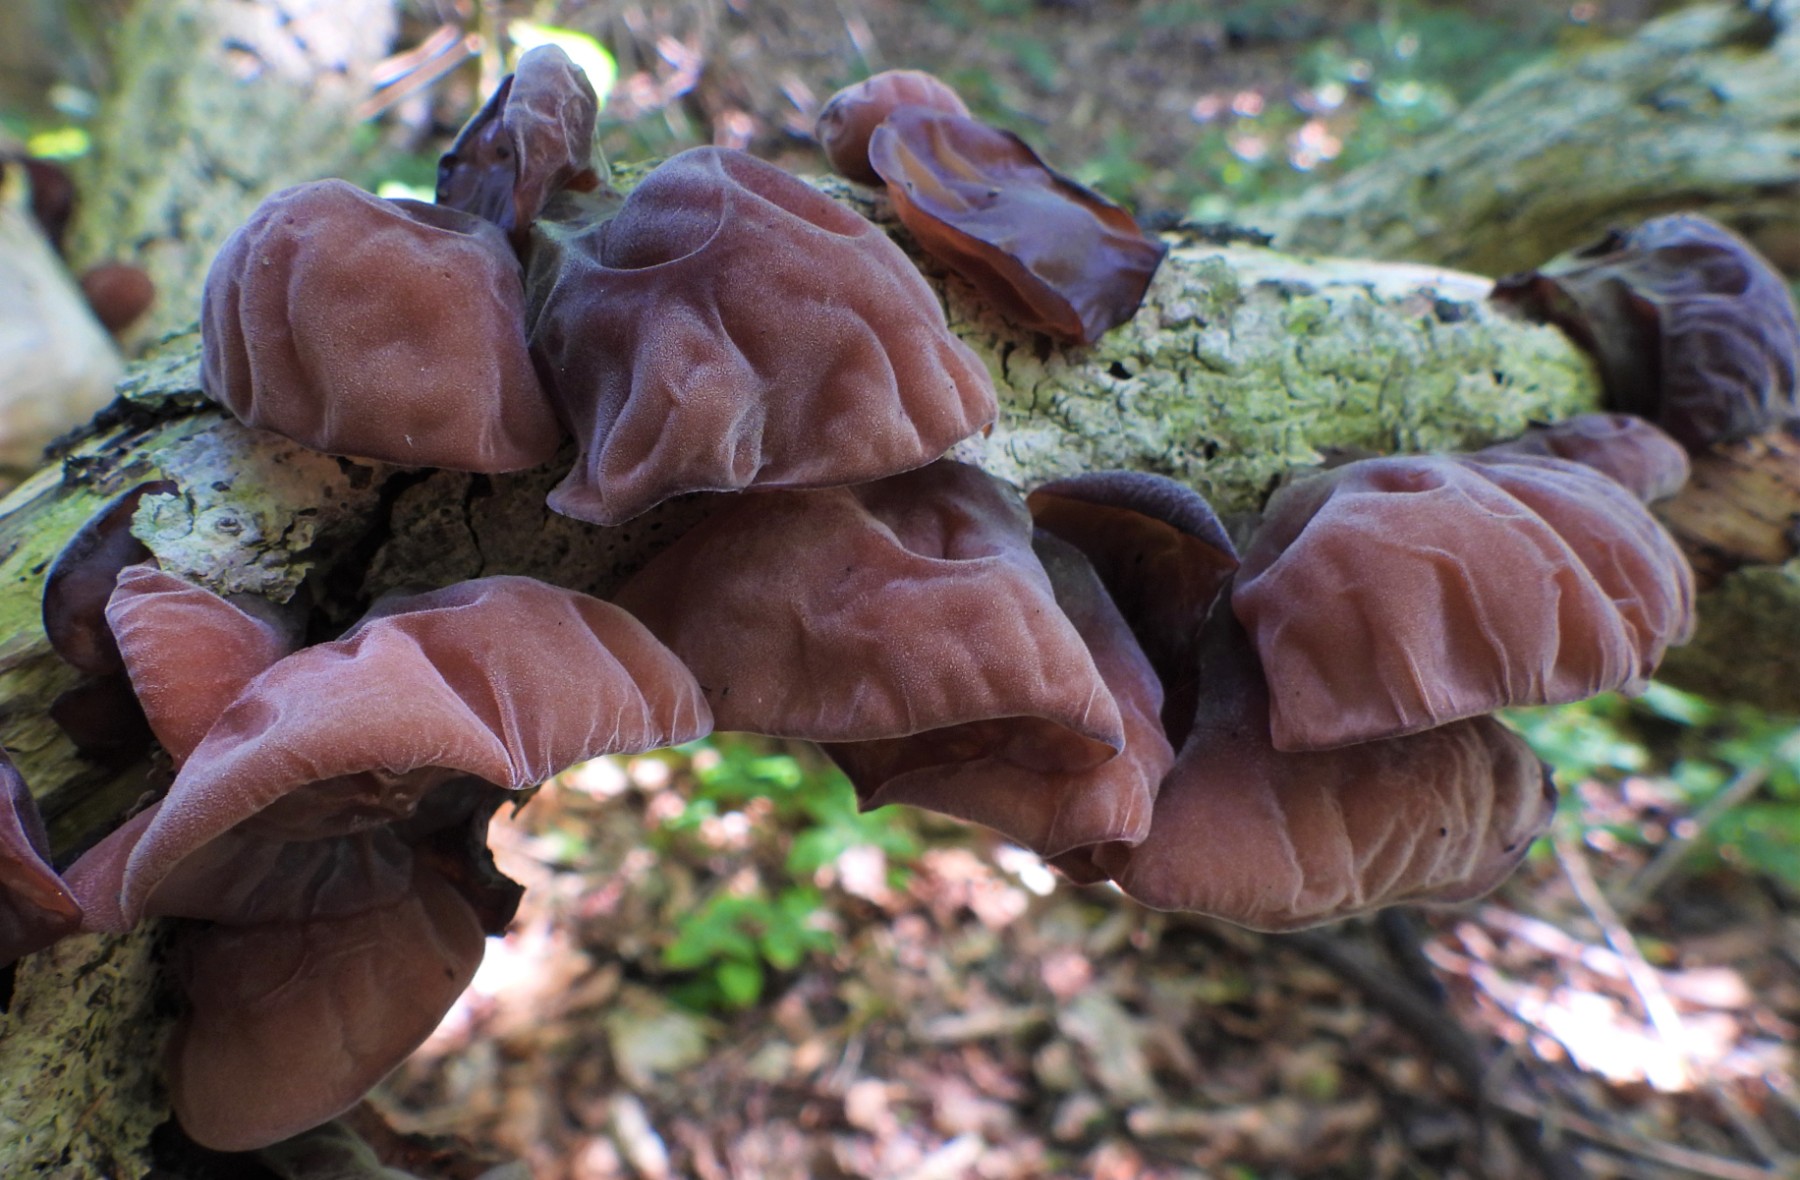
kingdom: Fungi
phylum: Basidiomycota
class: Agaricomycetes
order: Auriculariales
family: Auriculariaceae
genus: Auricularia
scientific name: Auricularia auricula-judae
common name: almindelig judasøre
